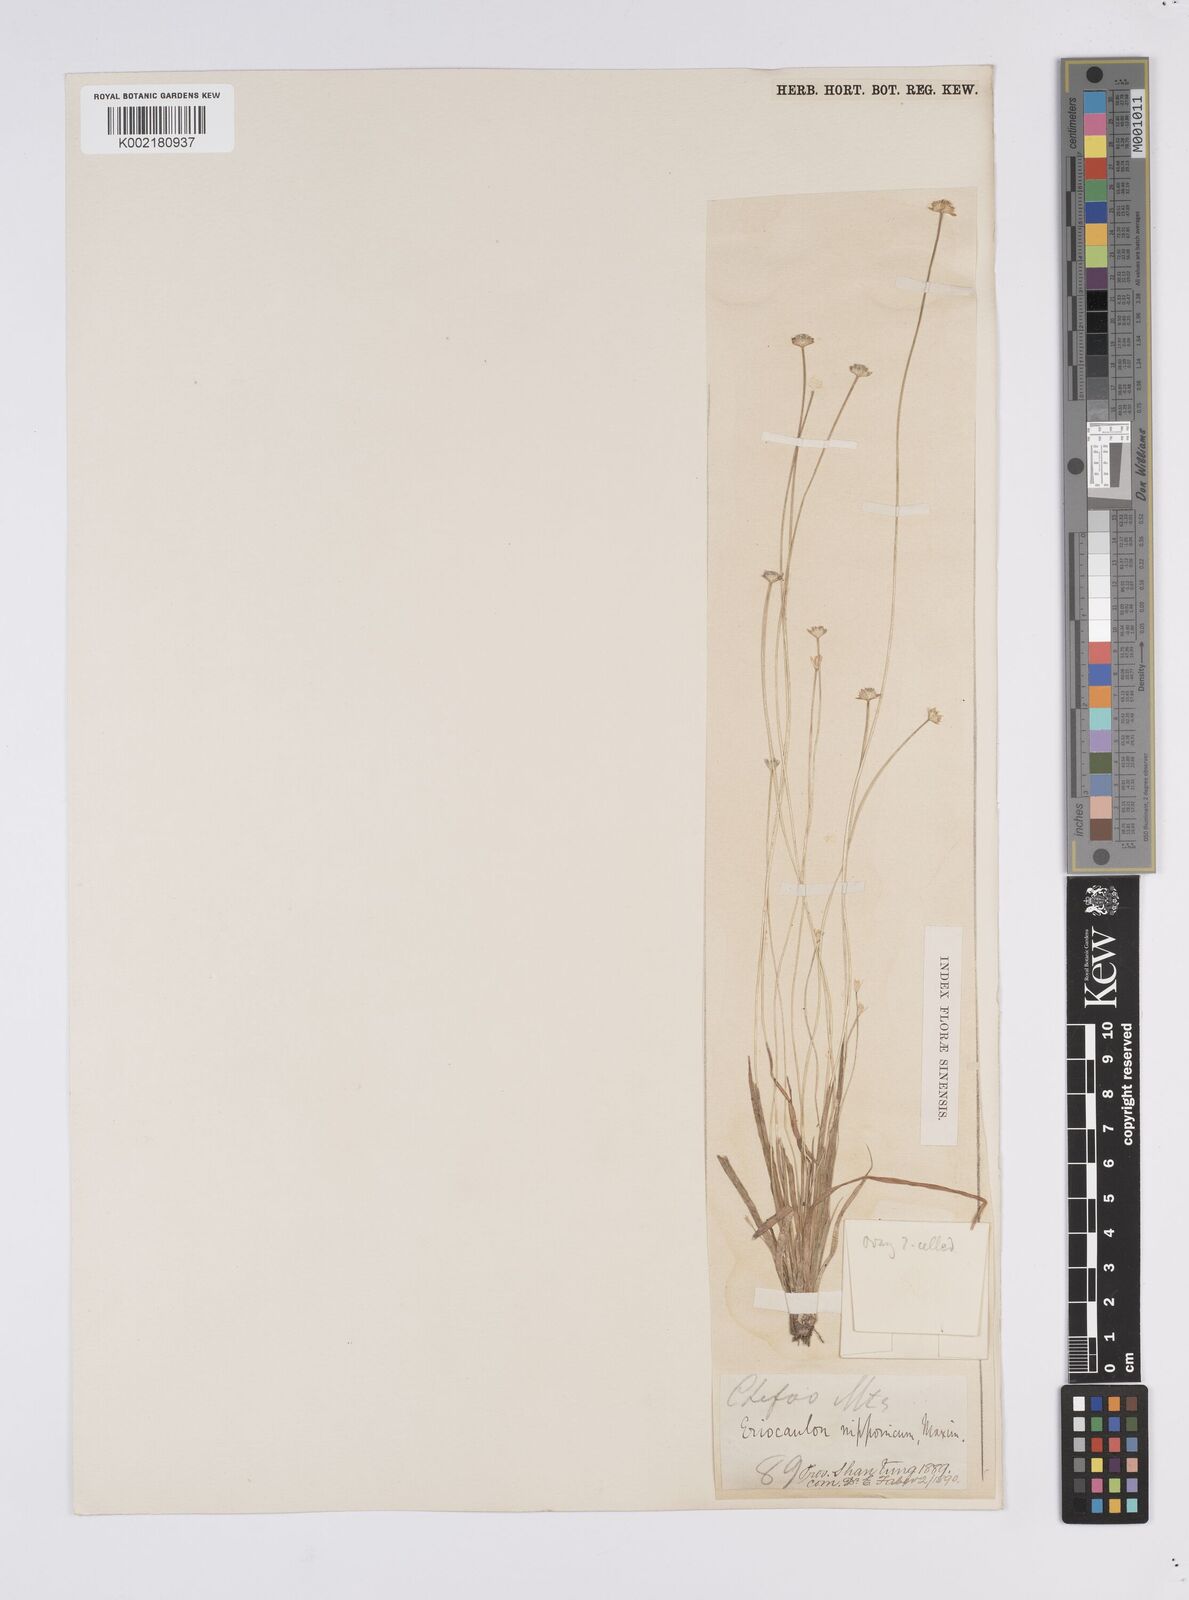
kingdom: Plantae
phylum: Tracheophyta
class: Liliopsida
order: Poales
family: Eriocaulaceae
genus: Eriocaulon
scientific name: Eriocaulon decemflorum
